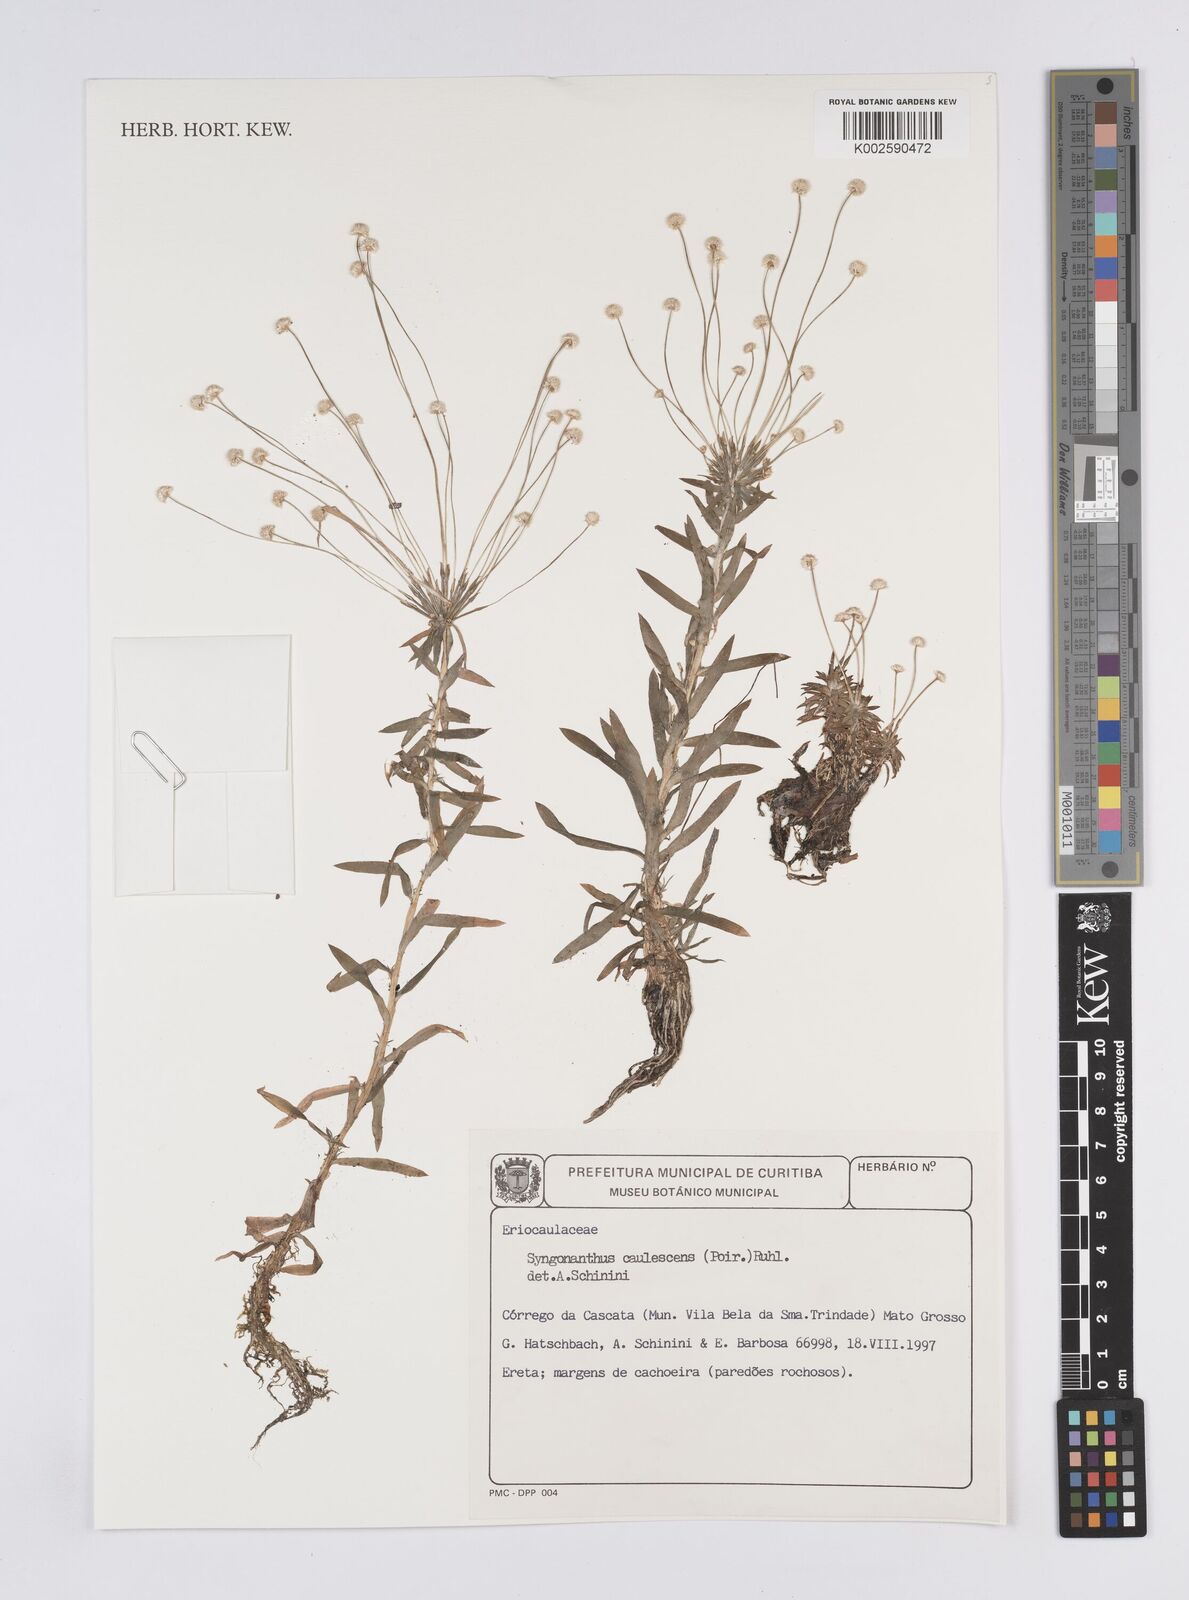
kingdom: Plantae
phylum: Tracheophyta
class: Liliopsida
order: Poales
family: Eriocaulaceae
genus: Syngonanthus
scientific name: Syngonanthus caulescens
